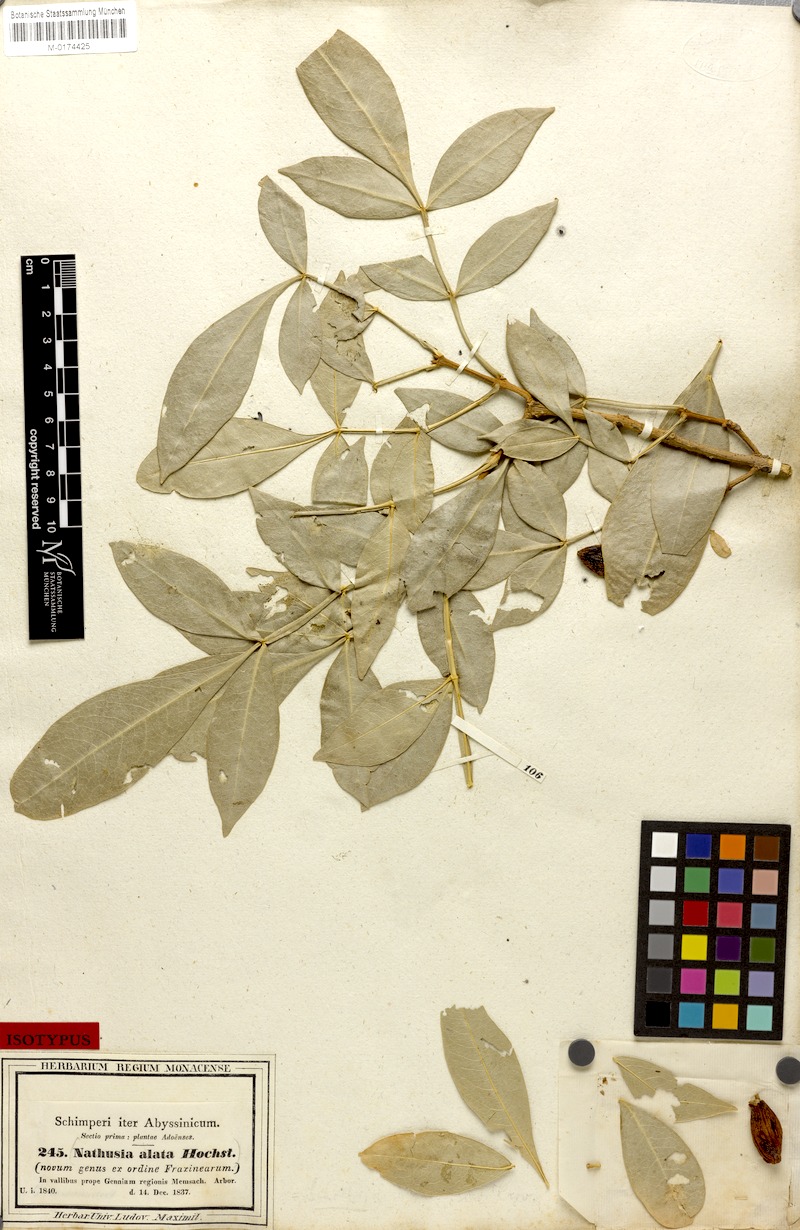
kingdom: Plantae
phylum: Tracheophyta
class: Magnoliopsida
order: Lamiales
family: Oleaceae
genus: Schrebera
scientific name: Schrebera alata
